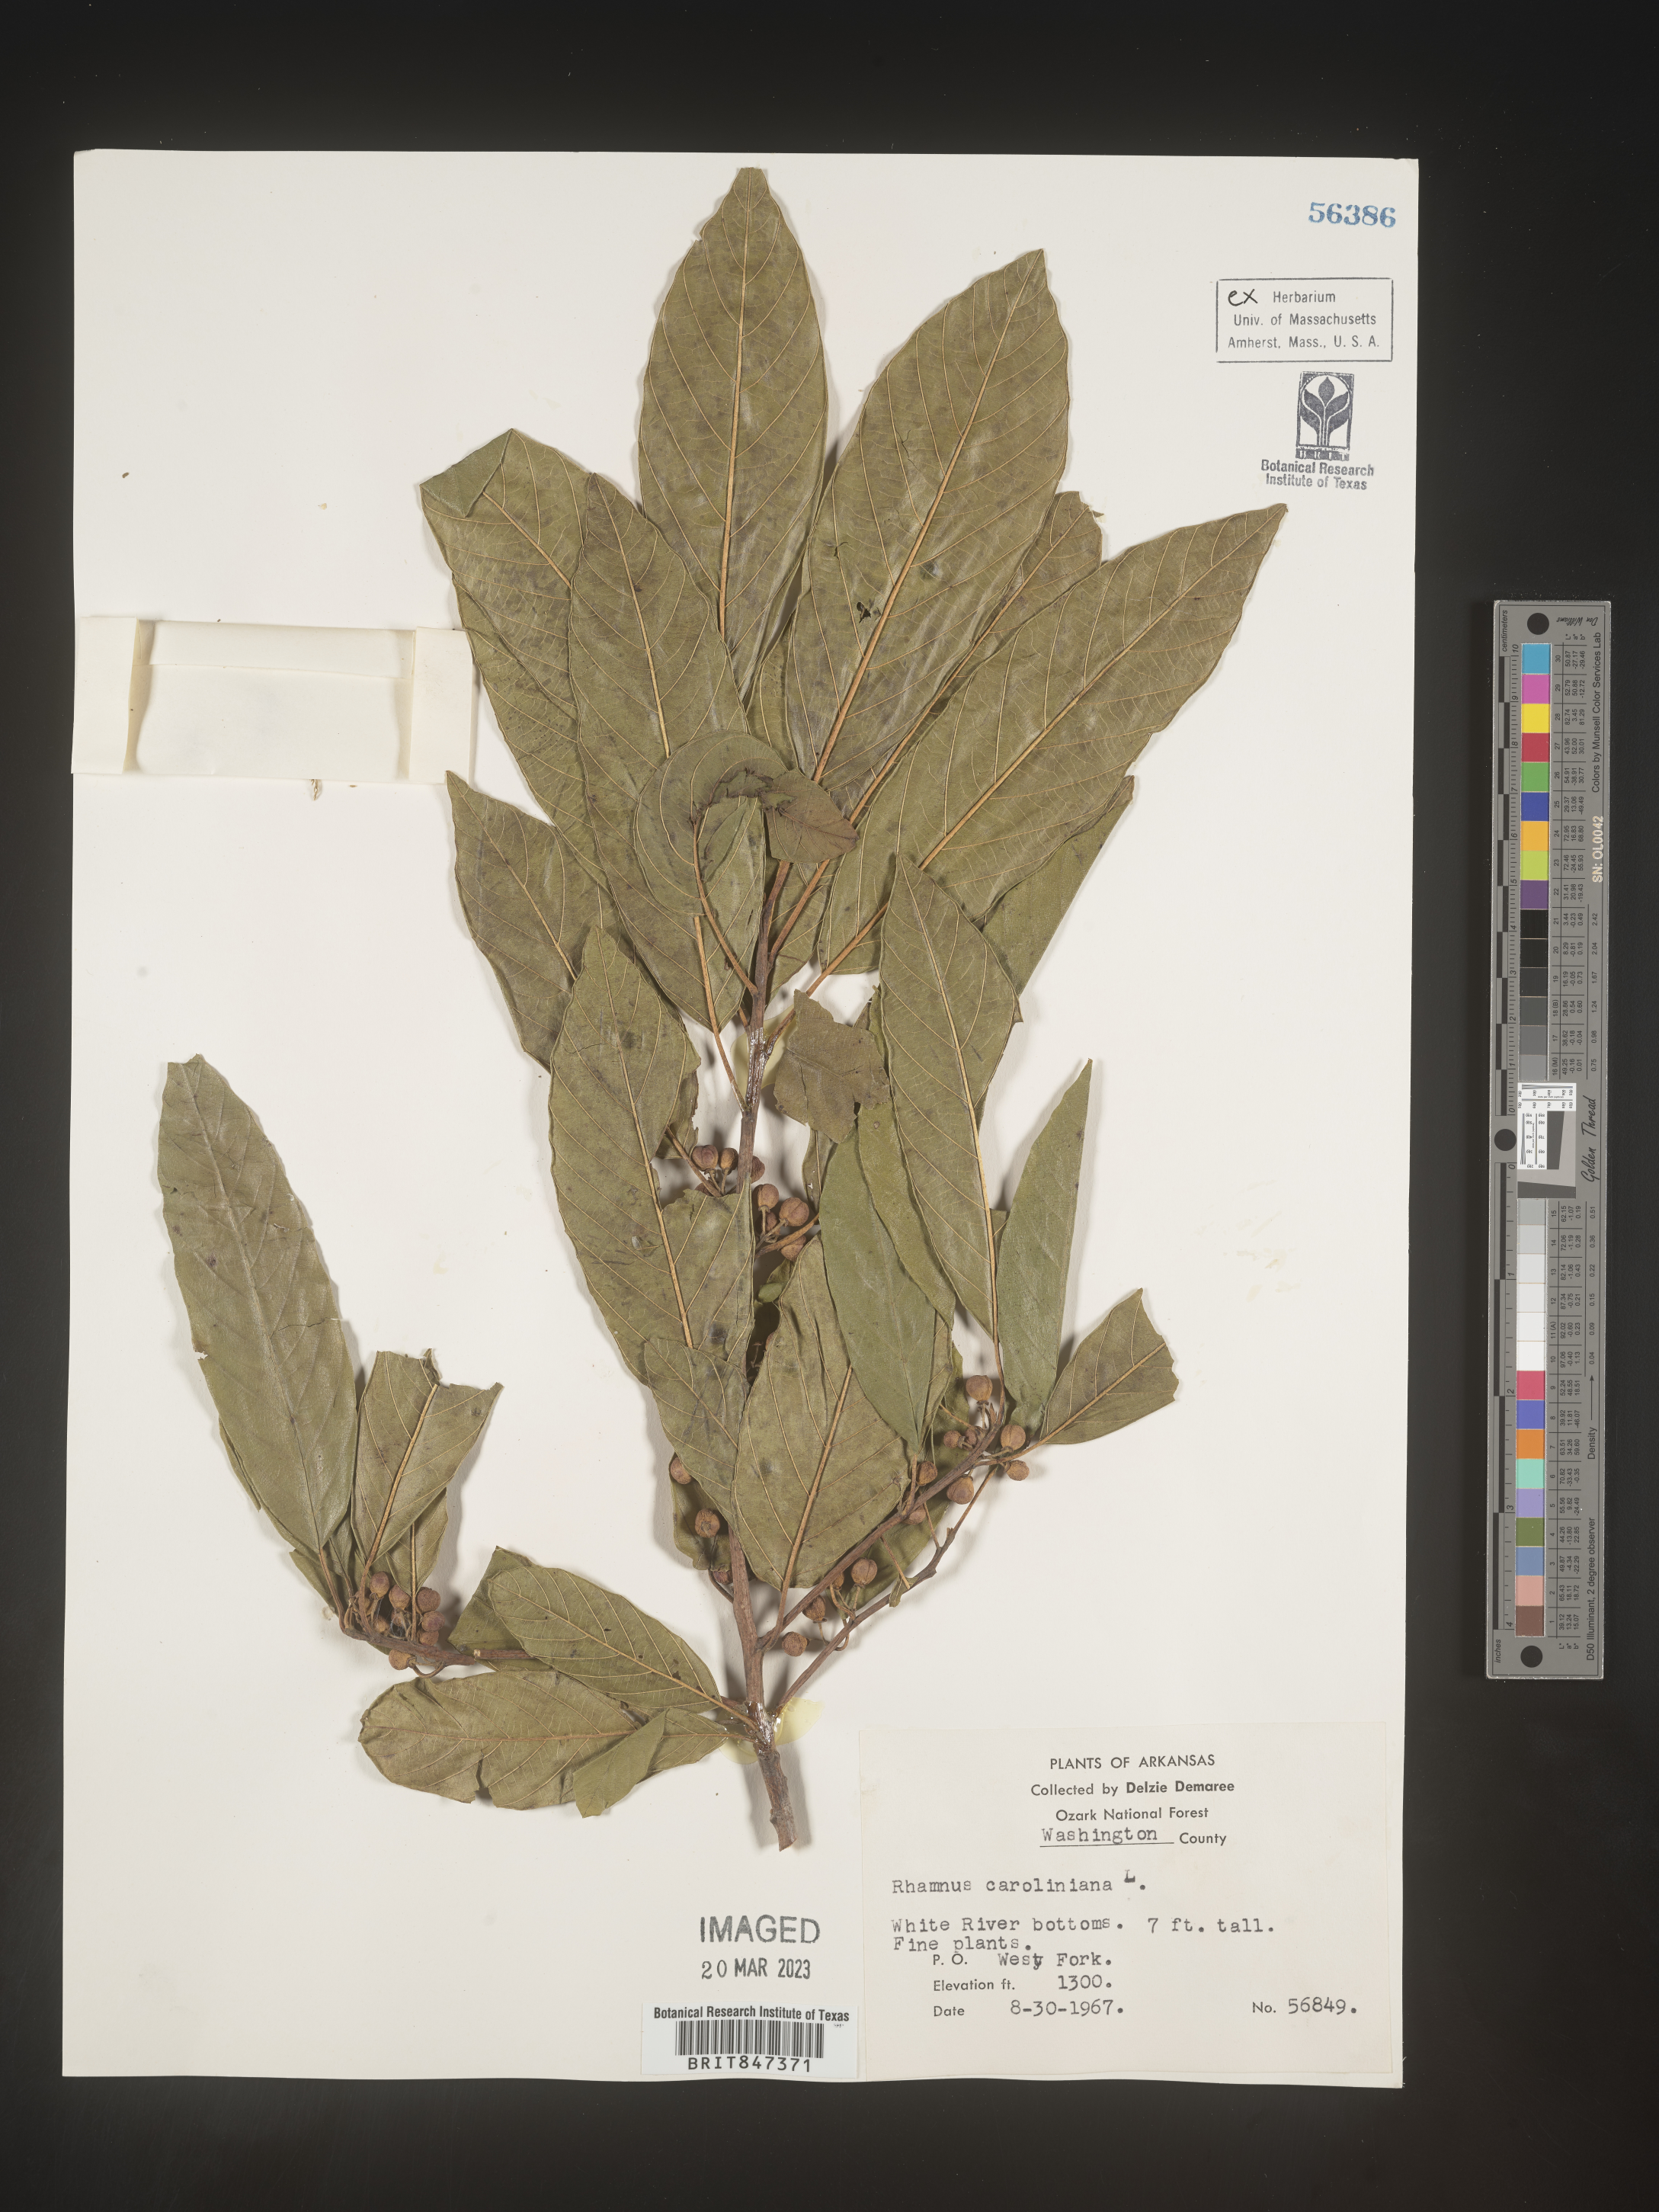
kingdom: Plantae
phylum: Tracheophyta
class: Magnoliopsida
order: Rosales
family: Rhamnaceae
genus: Frangula
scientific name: Frangula caroliniana
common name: Carolina buckthorn
